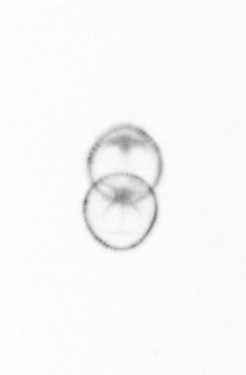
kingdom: Chromista
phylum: Myzozoa
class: Dinophyceae
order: Noctilucales
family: Noctilucaceae
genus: Noctiluca
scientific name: Noctiluca scintillans
